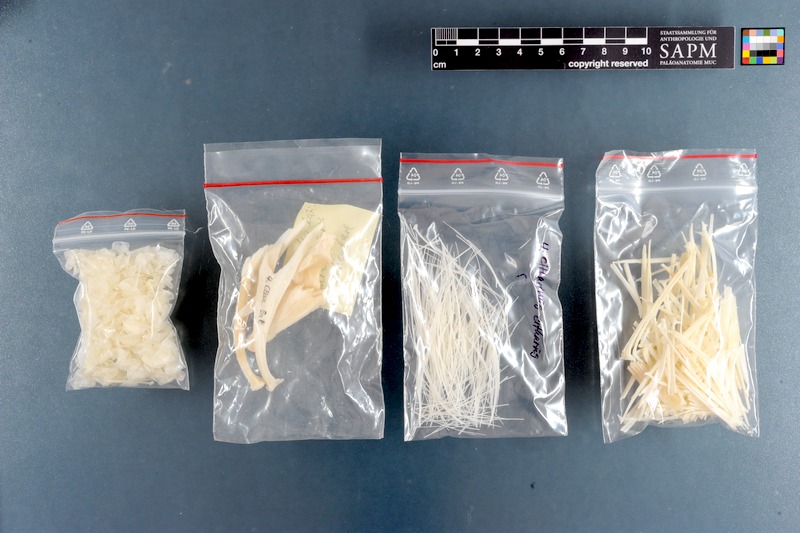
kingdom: Animalia
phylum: Chordata
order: Characiformes
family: Citharinidae
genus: Citharinus
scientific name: Citharinus citharus
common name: Moon fish
